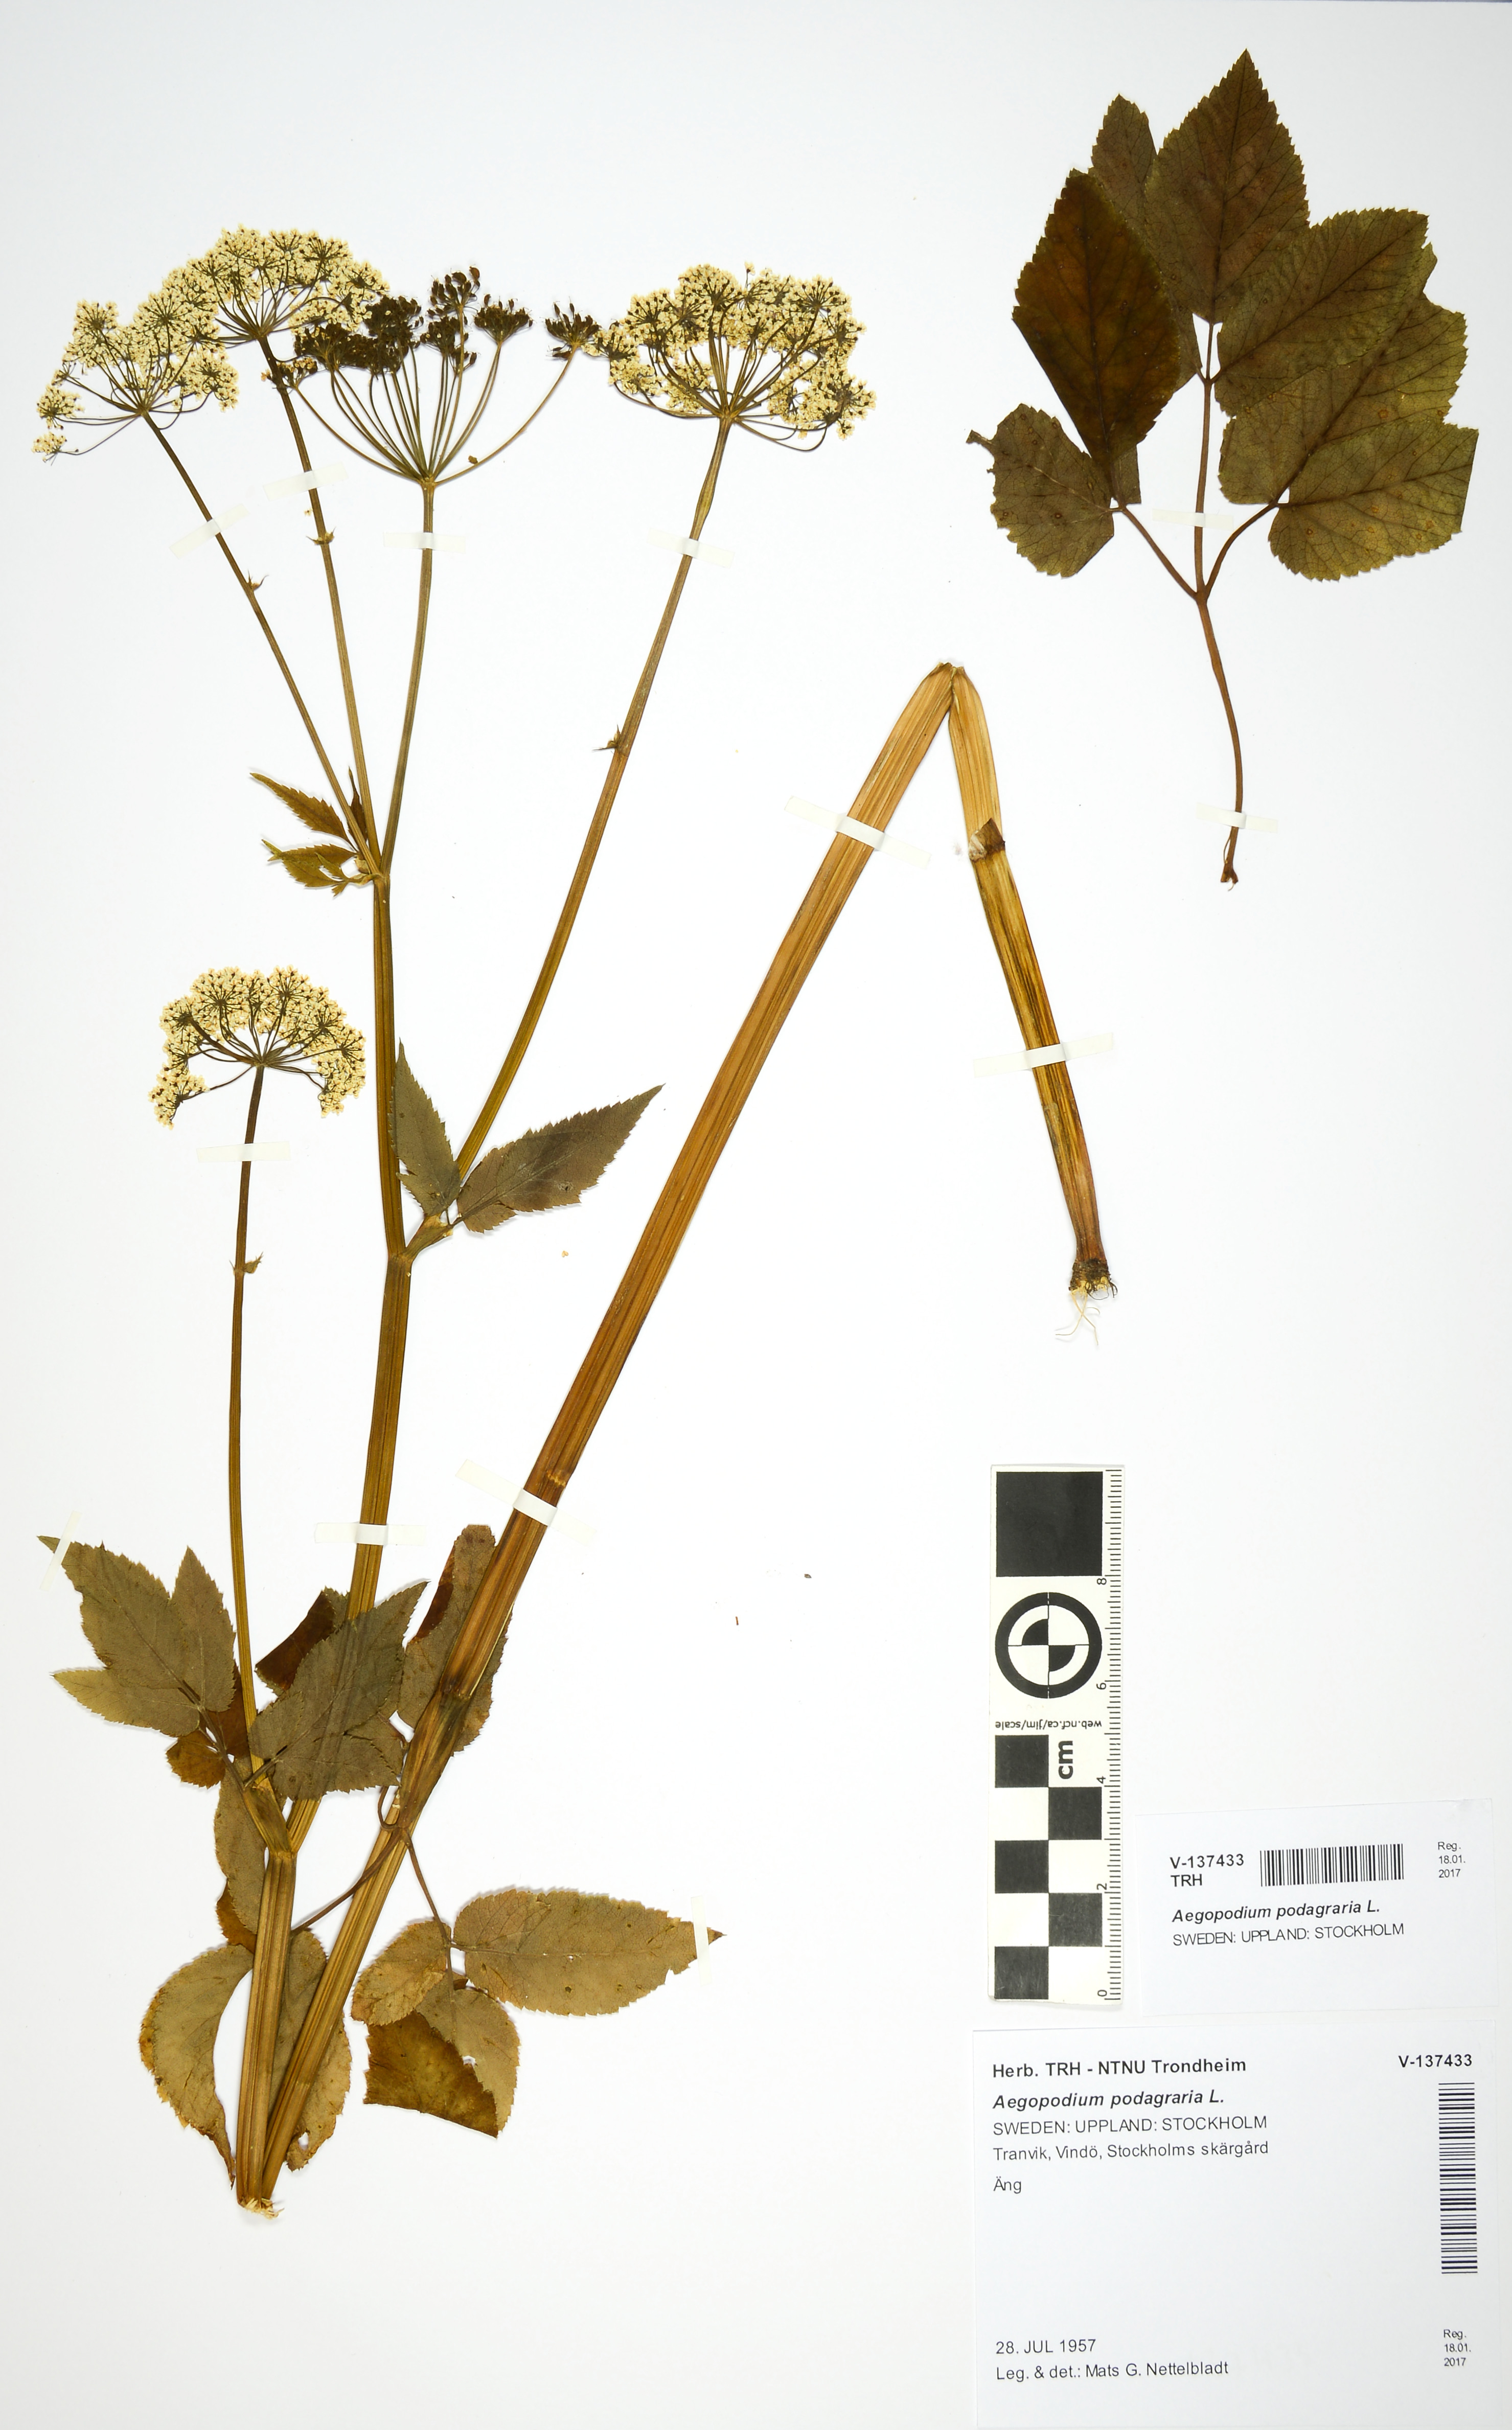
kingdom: Plantae
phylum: Tracheophyta
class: Magnoliopsida
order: Apiales
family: Apiaceae
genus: Aegopodium
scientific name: Aegopodium podagraria
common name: Ground-elder
